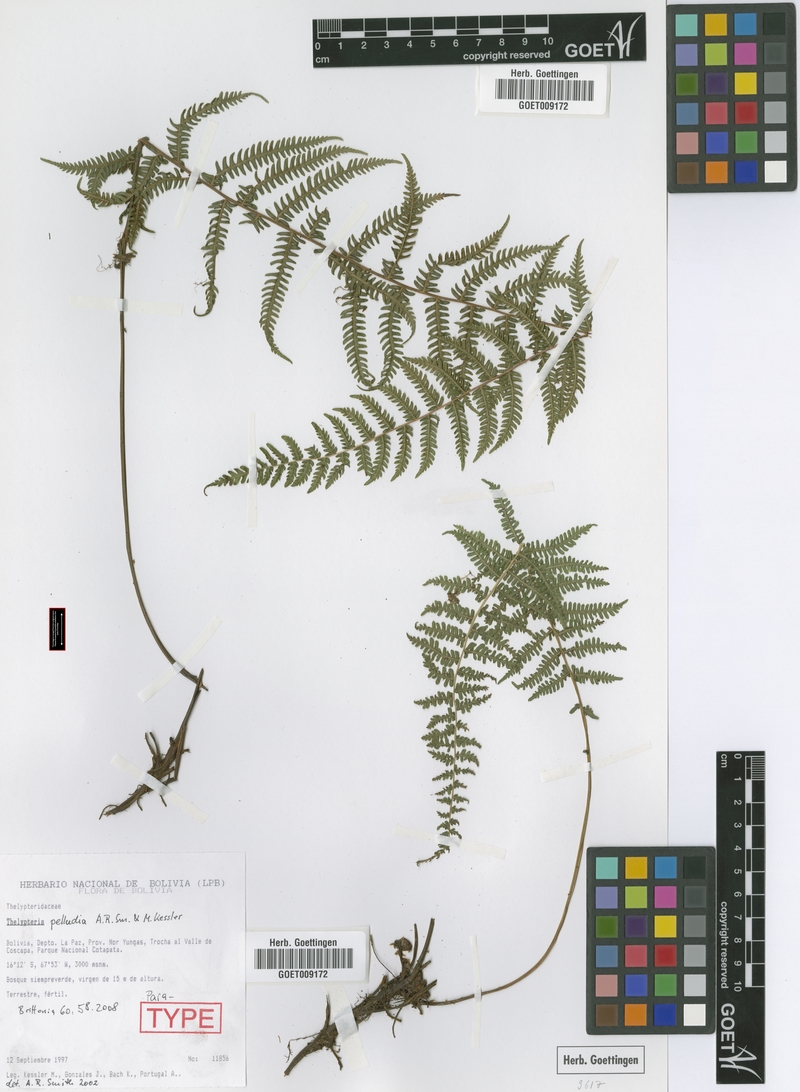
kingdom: Plantae
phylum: Tracheophyta
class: Polypodiopsida
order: Polypodiales
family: Thelypteridaceae
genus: Amauropelta
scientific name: Amauropelta pelludia
